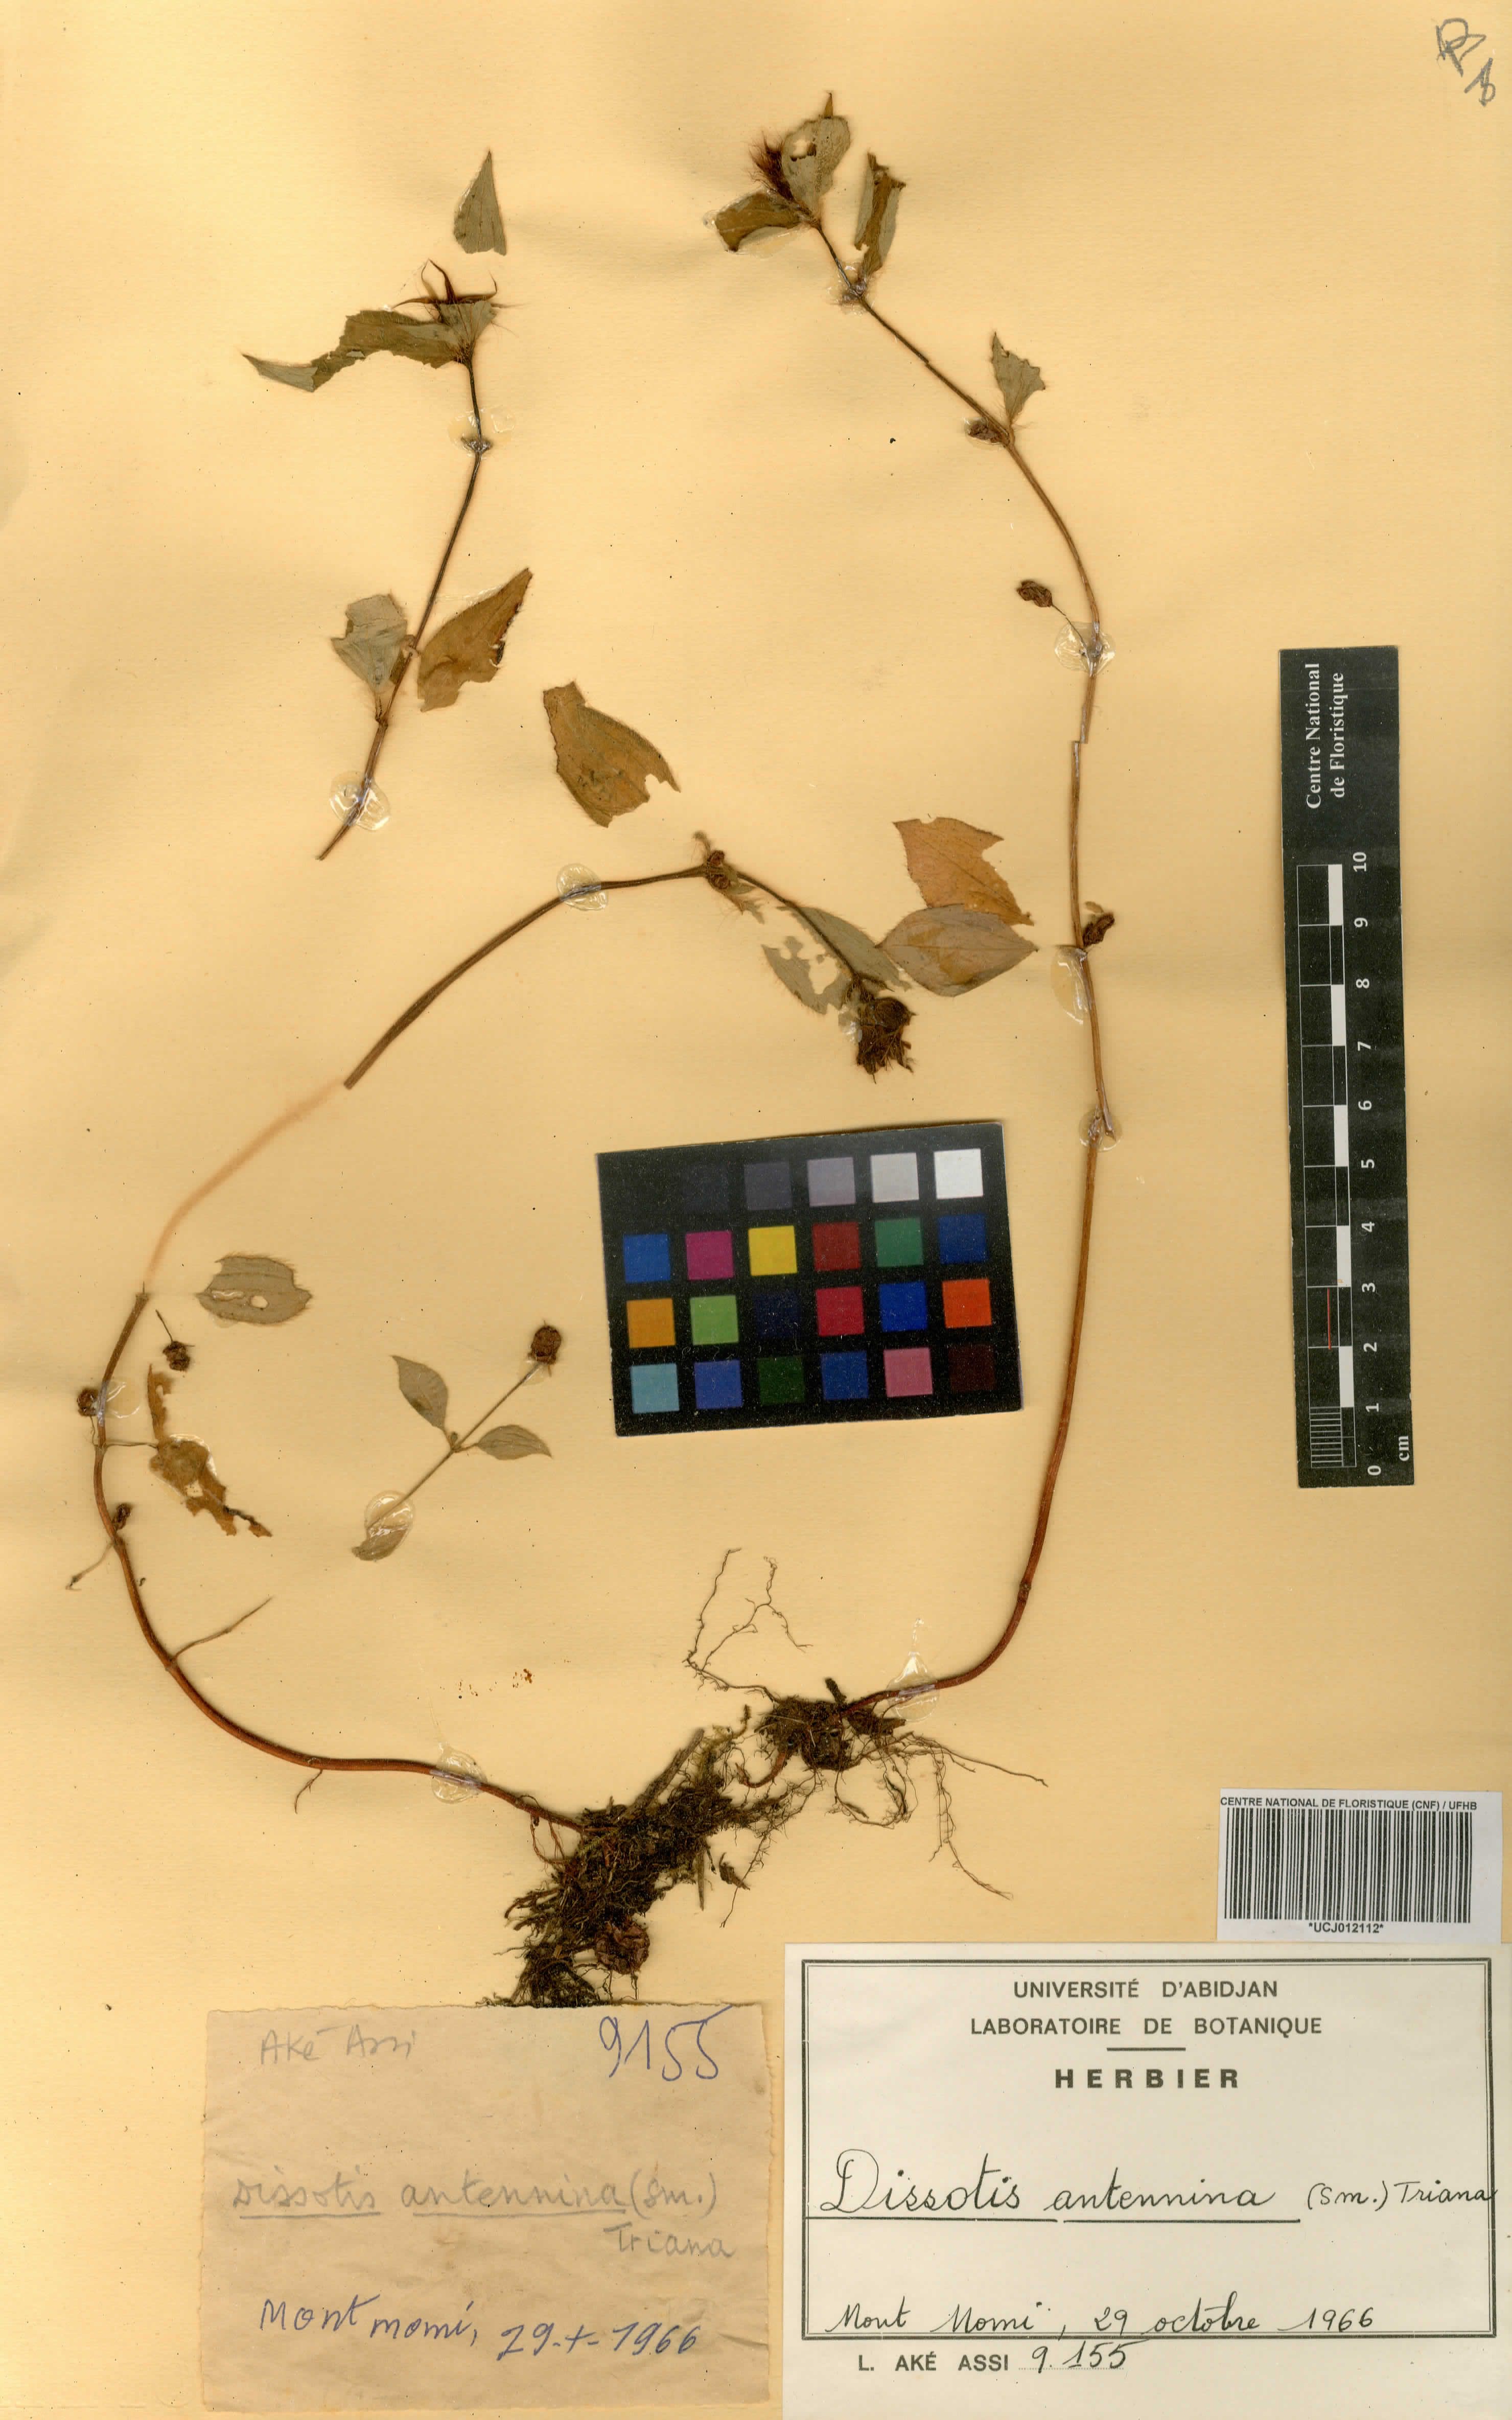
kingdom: Plantae
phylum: Tracheophyta
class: Magnoliopsida
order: Myrtales
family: Melastomataceae
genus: Guyonia
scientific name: Guyonia antennina
